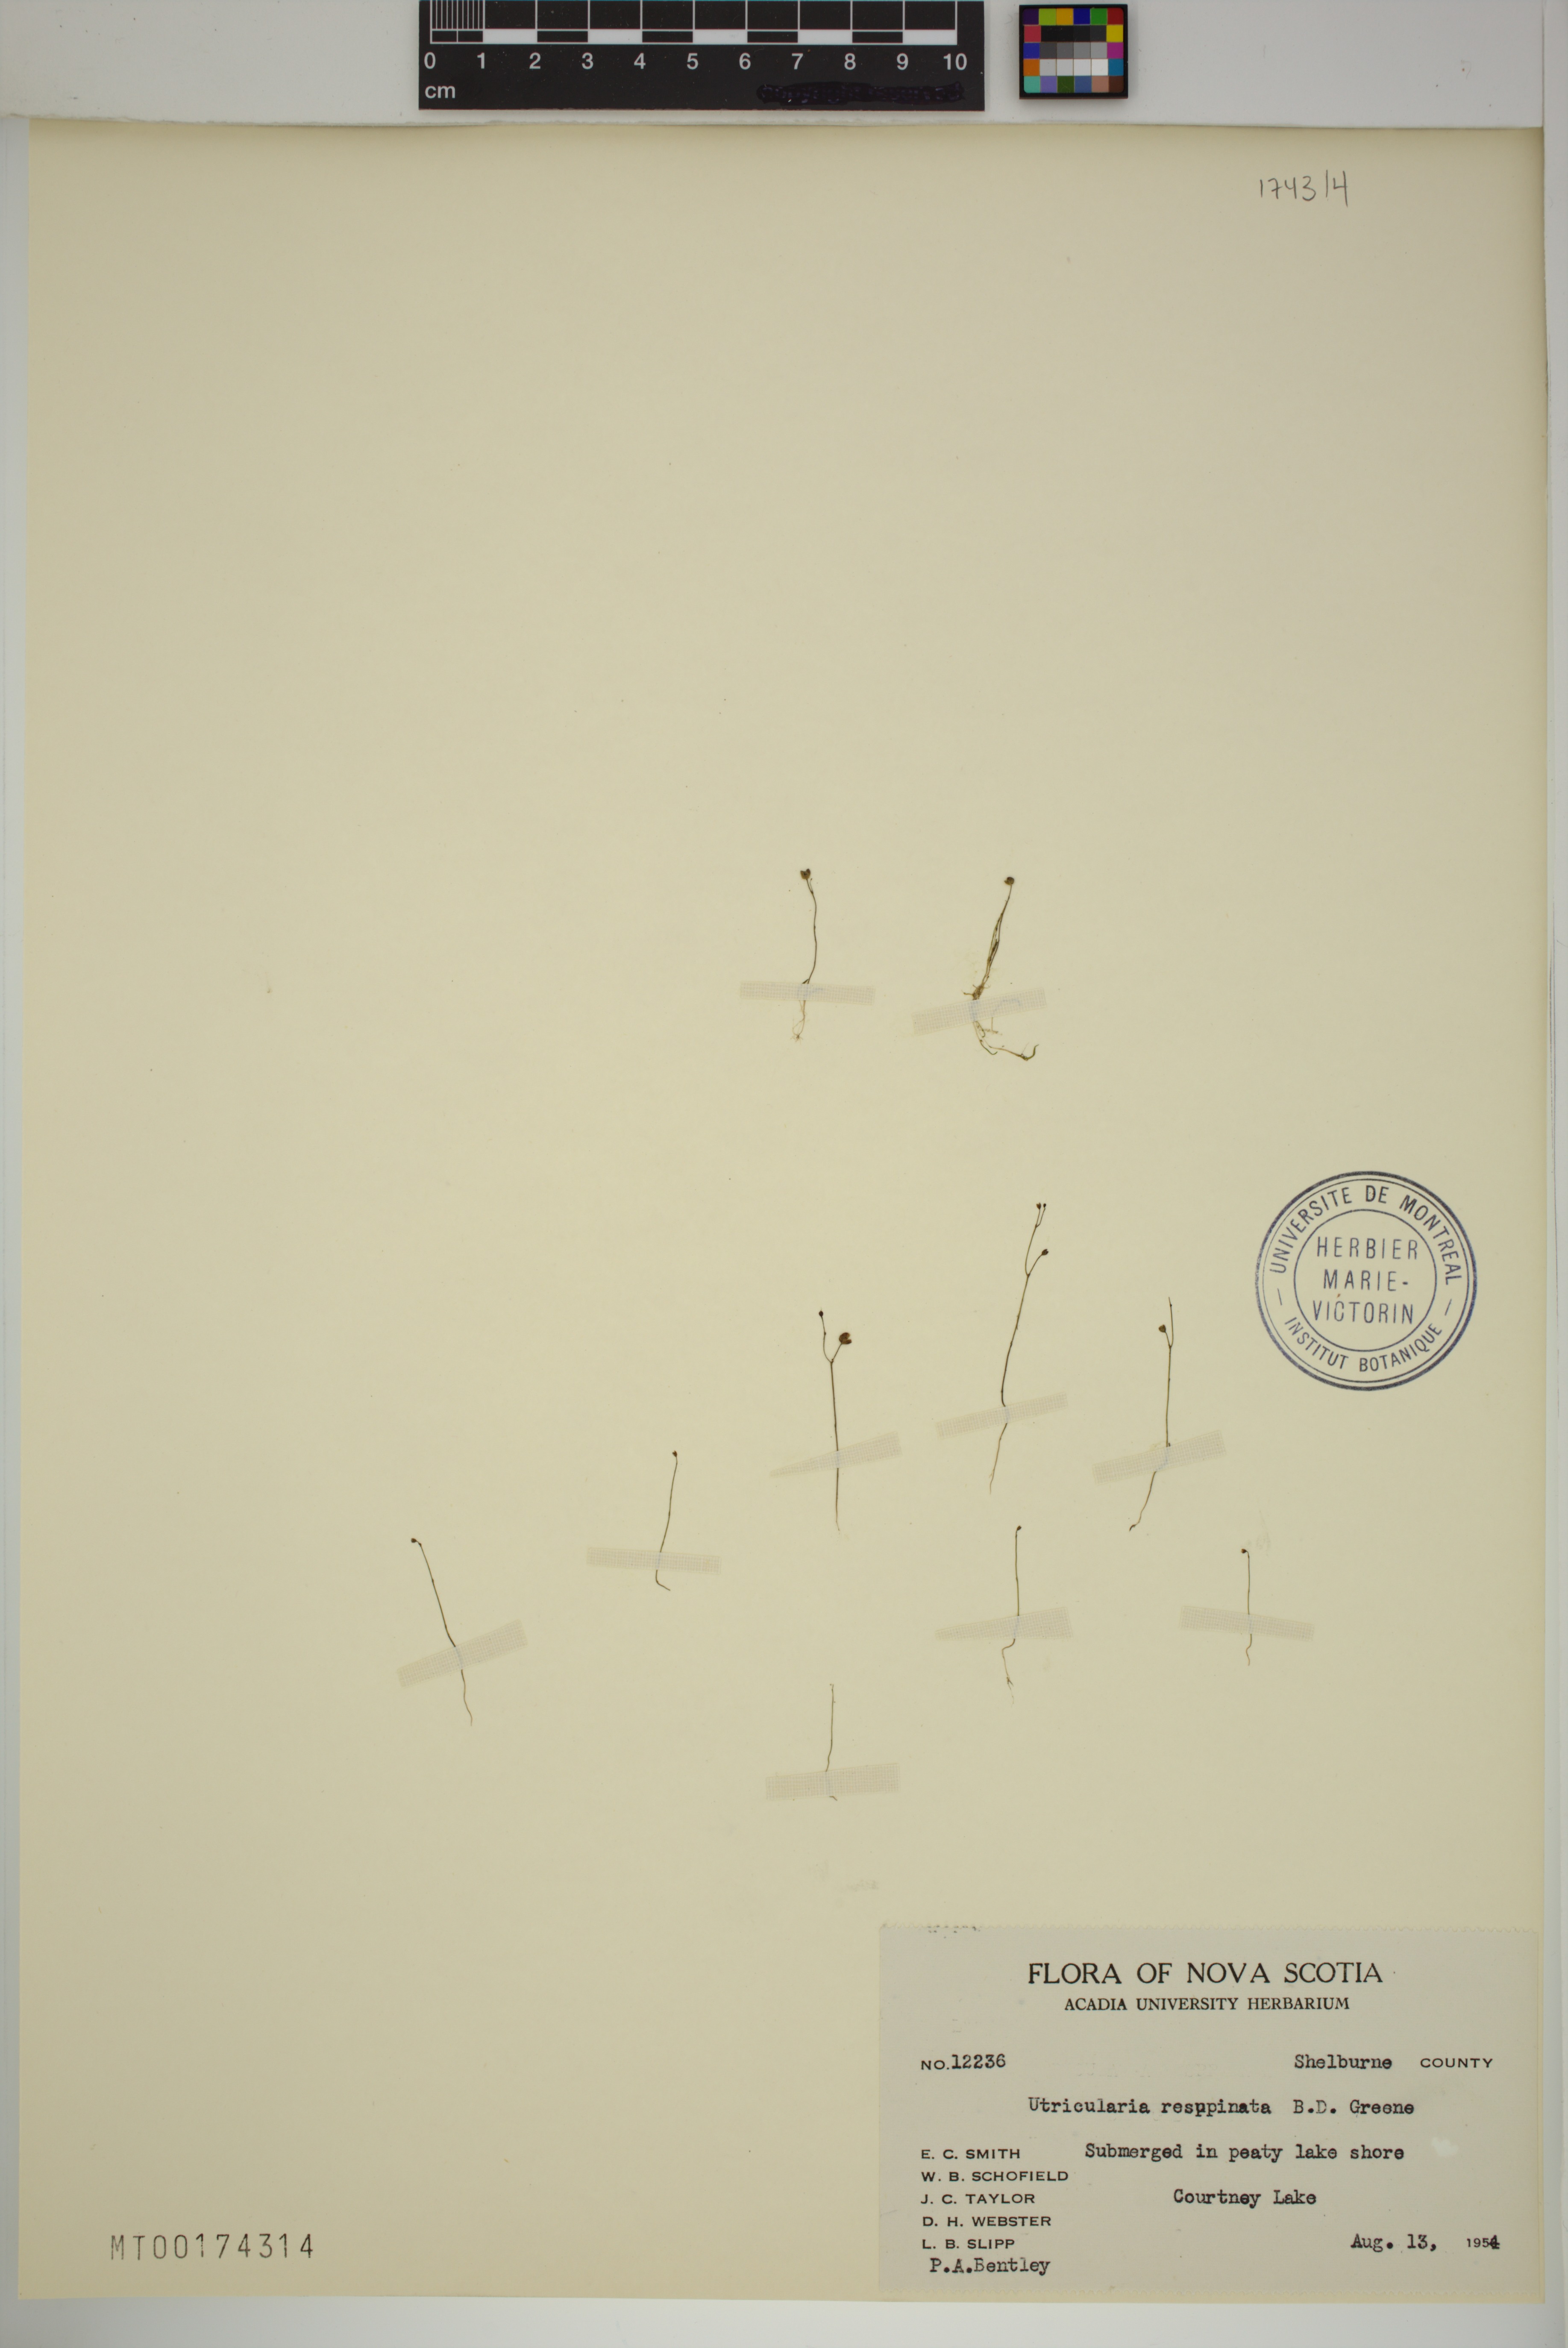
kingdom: Plantae
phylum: Tracheophyta
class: Magnoliopsida
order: Lamiales
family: Lentibulariaceae
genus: Utricularia
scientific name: Utricularia resupinata
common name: Northeastern bladderwort
